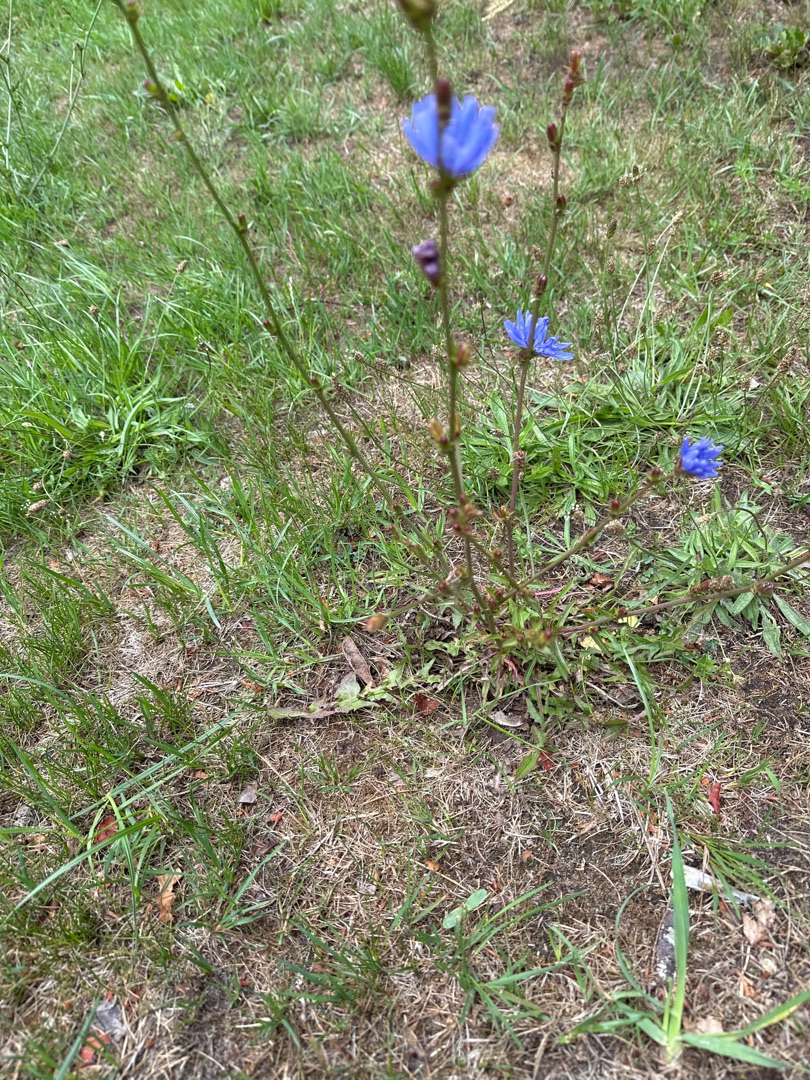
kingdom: Plantae
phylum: Tracheophyta
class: Magnoliopsida
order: Asterales
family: Asteraceae
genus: Cichorium
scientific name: Cichorium intybus
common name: Cikorie
